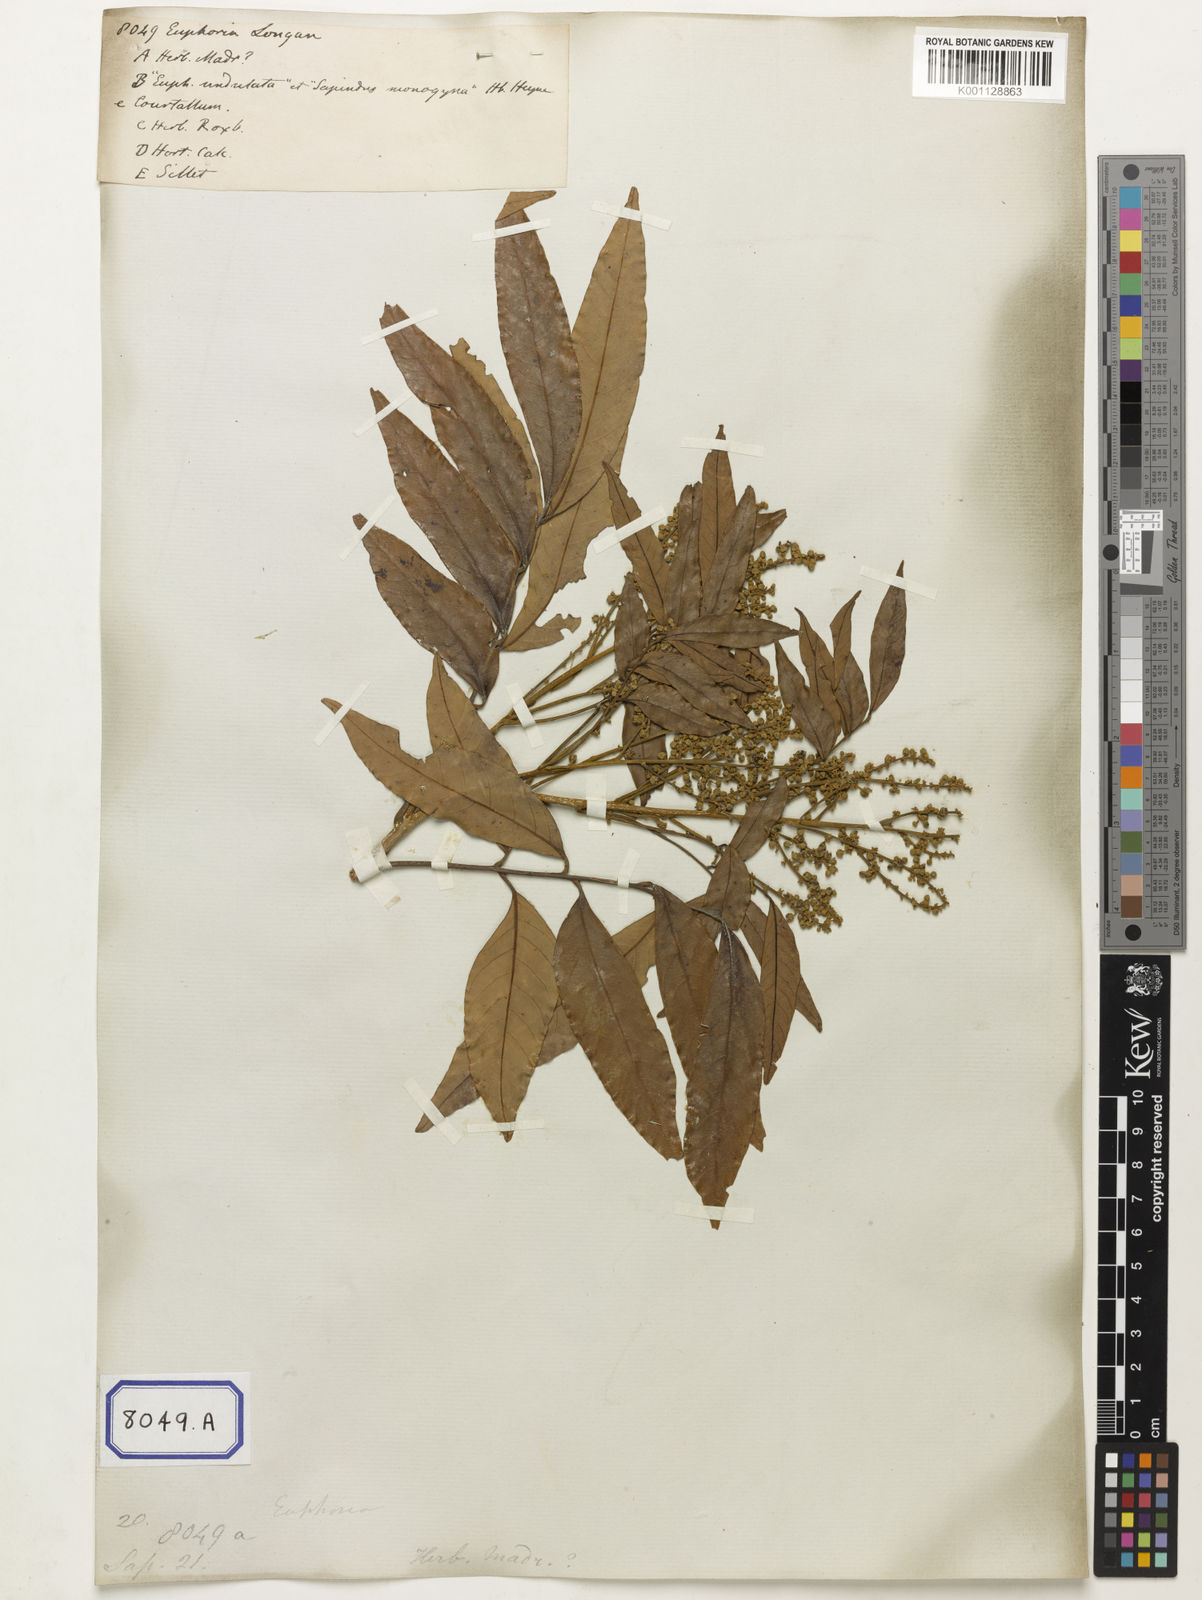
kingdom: Plantae
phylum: Tracheophyta
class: Magnoliopsida
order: Sapindales
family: Sapindaceae
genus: Dimocarpus
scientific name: Dimocarpus longan
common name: Longan
